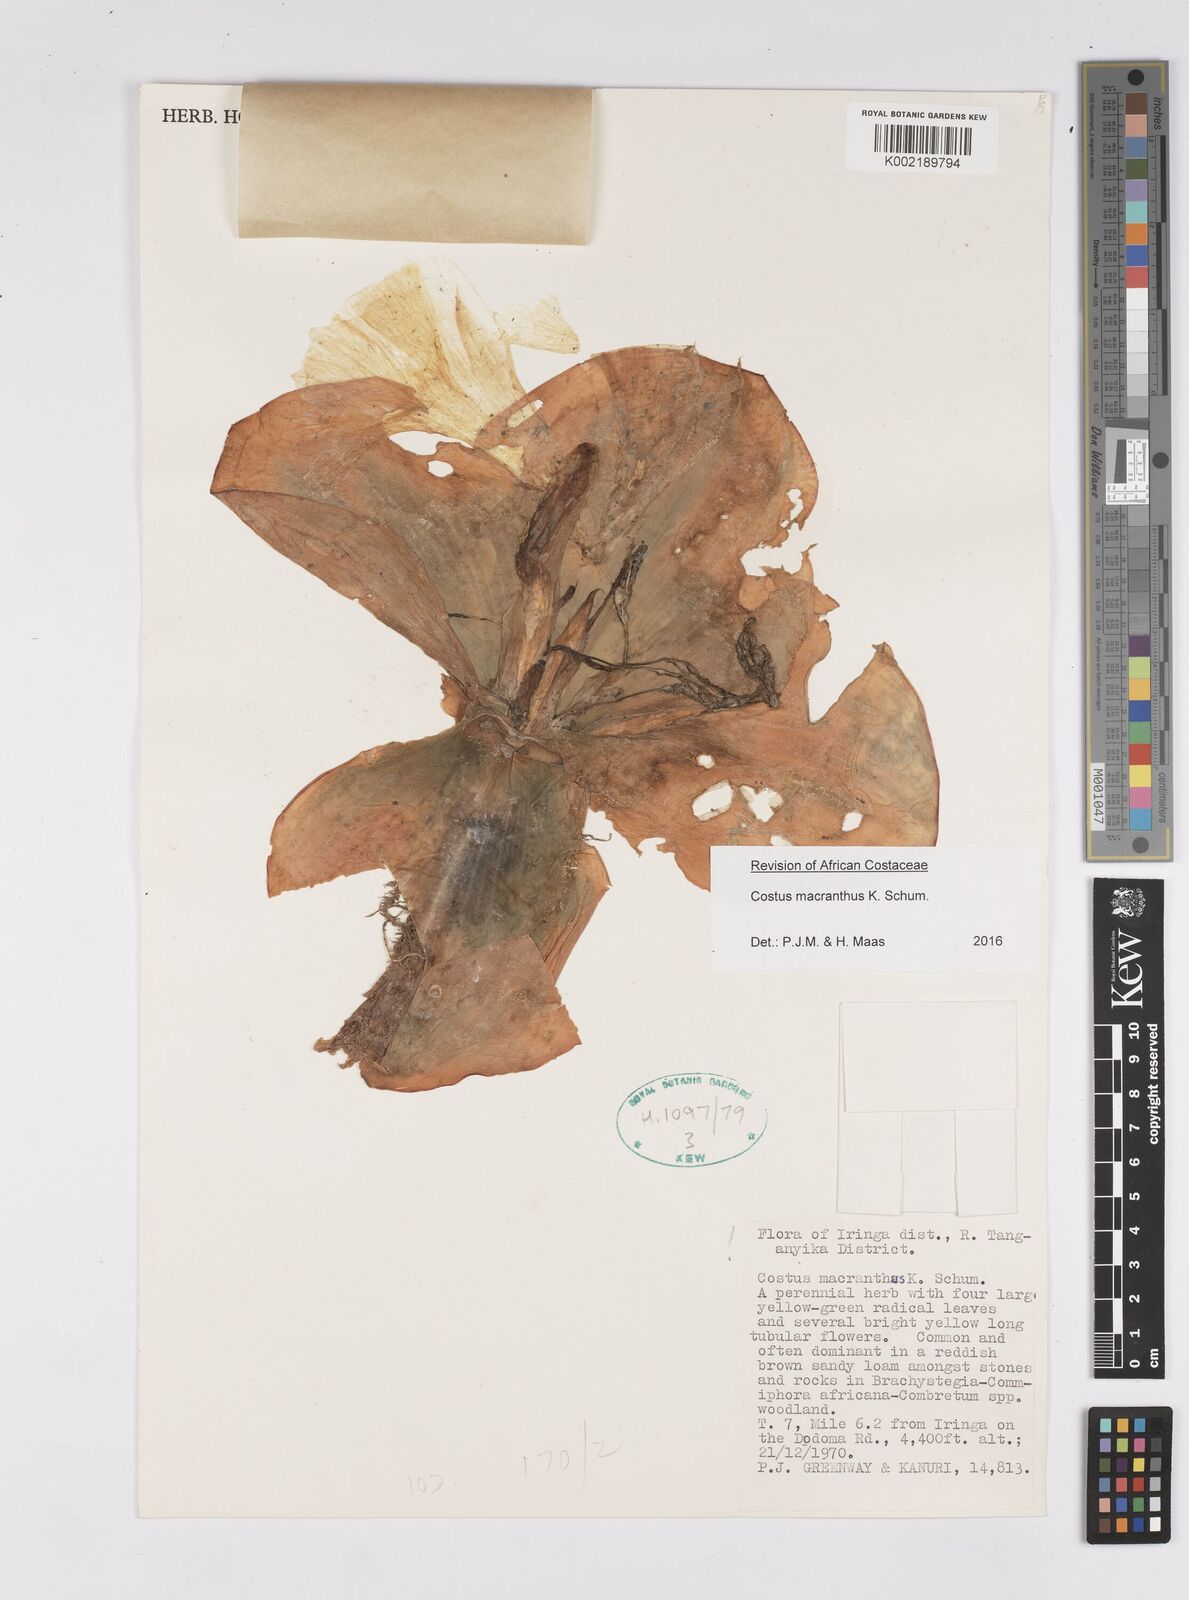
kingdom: Plantae
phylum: Tracheophyta
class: Liliopsida
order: Zingiberales
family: Costaceae
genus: Costus
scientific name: Costus macranthus
